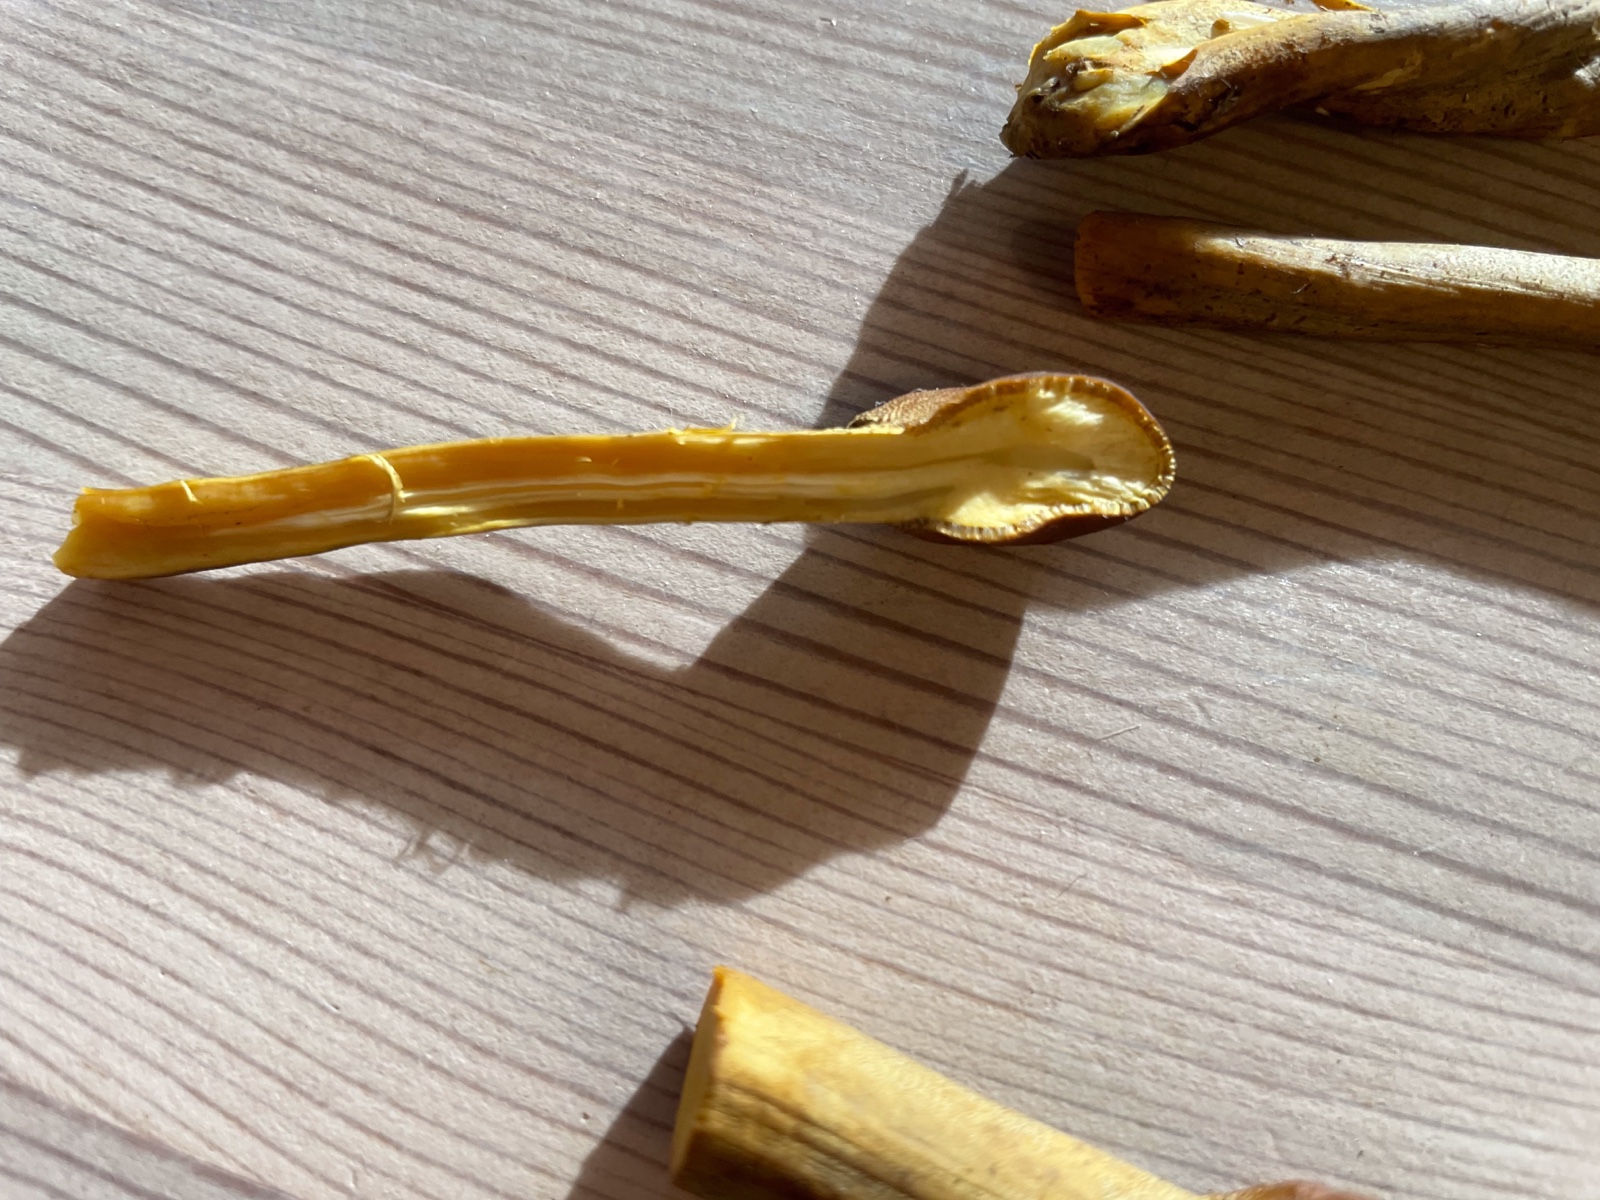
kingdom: Fungi
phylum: Ascomycota
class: Sordariomycetes
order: Hypocreales
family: Ophiocordycipitaceae
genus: Tolypocladium
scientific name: Tolypocladium
